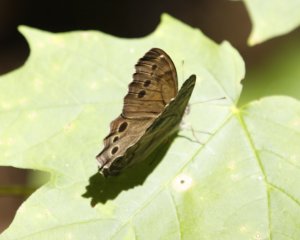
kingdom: Animalia
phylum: Arthropoda
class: Insecta
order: Lepidoptera
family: Nymphalidae
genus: Lethe
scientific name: Lethe anthedon
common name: Northern Pearly-Eye
